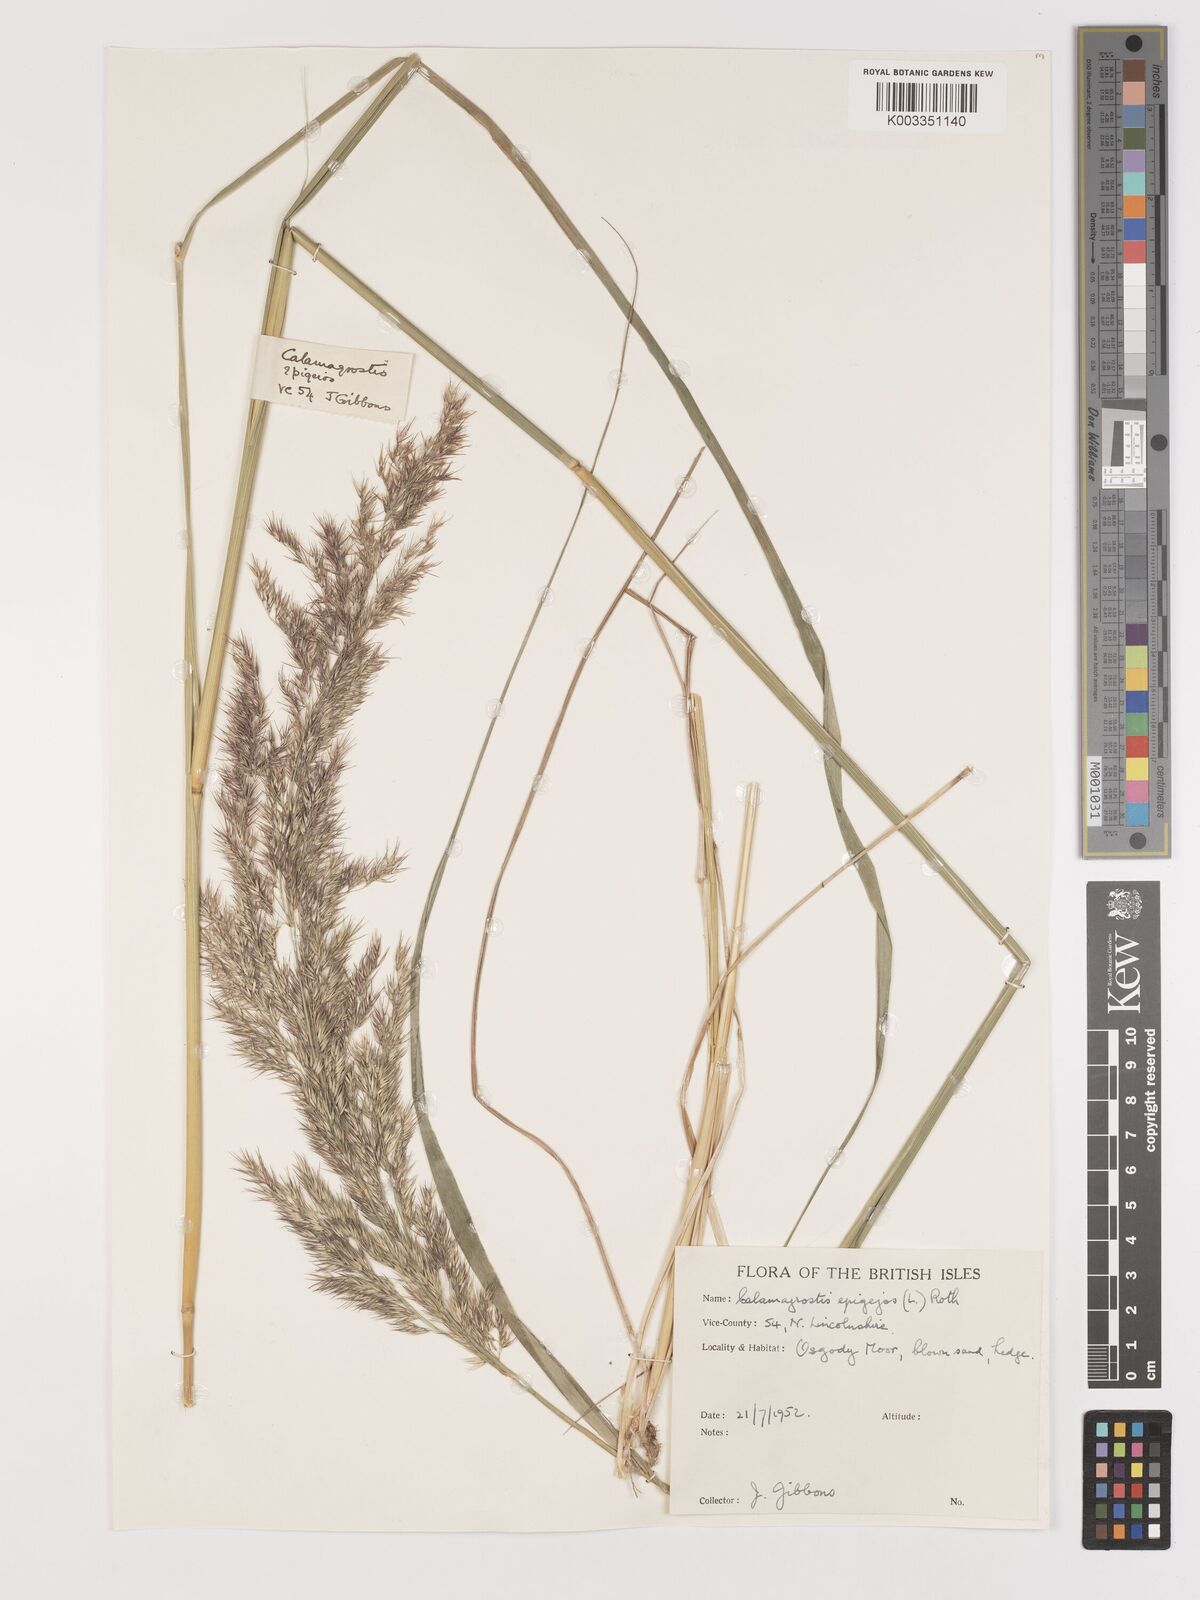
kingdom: Plantae
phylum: Tracheophyta
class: Liliopsida
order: Poales
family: Poaceae
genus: Calamagrostis
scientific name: Calamagrostis
